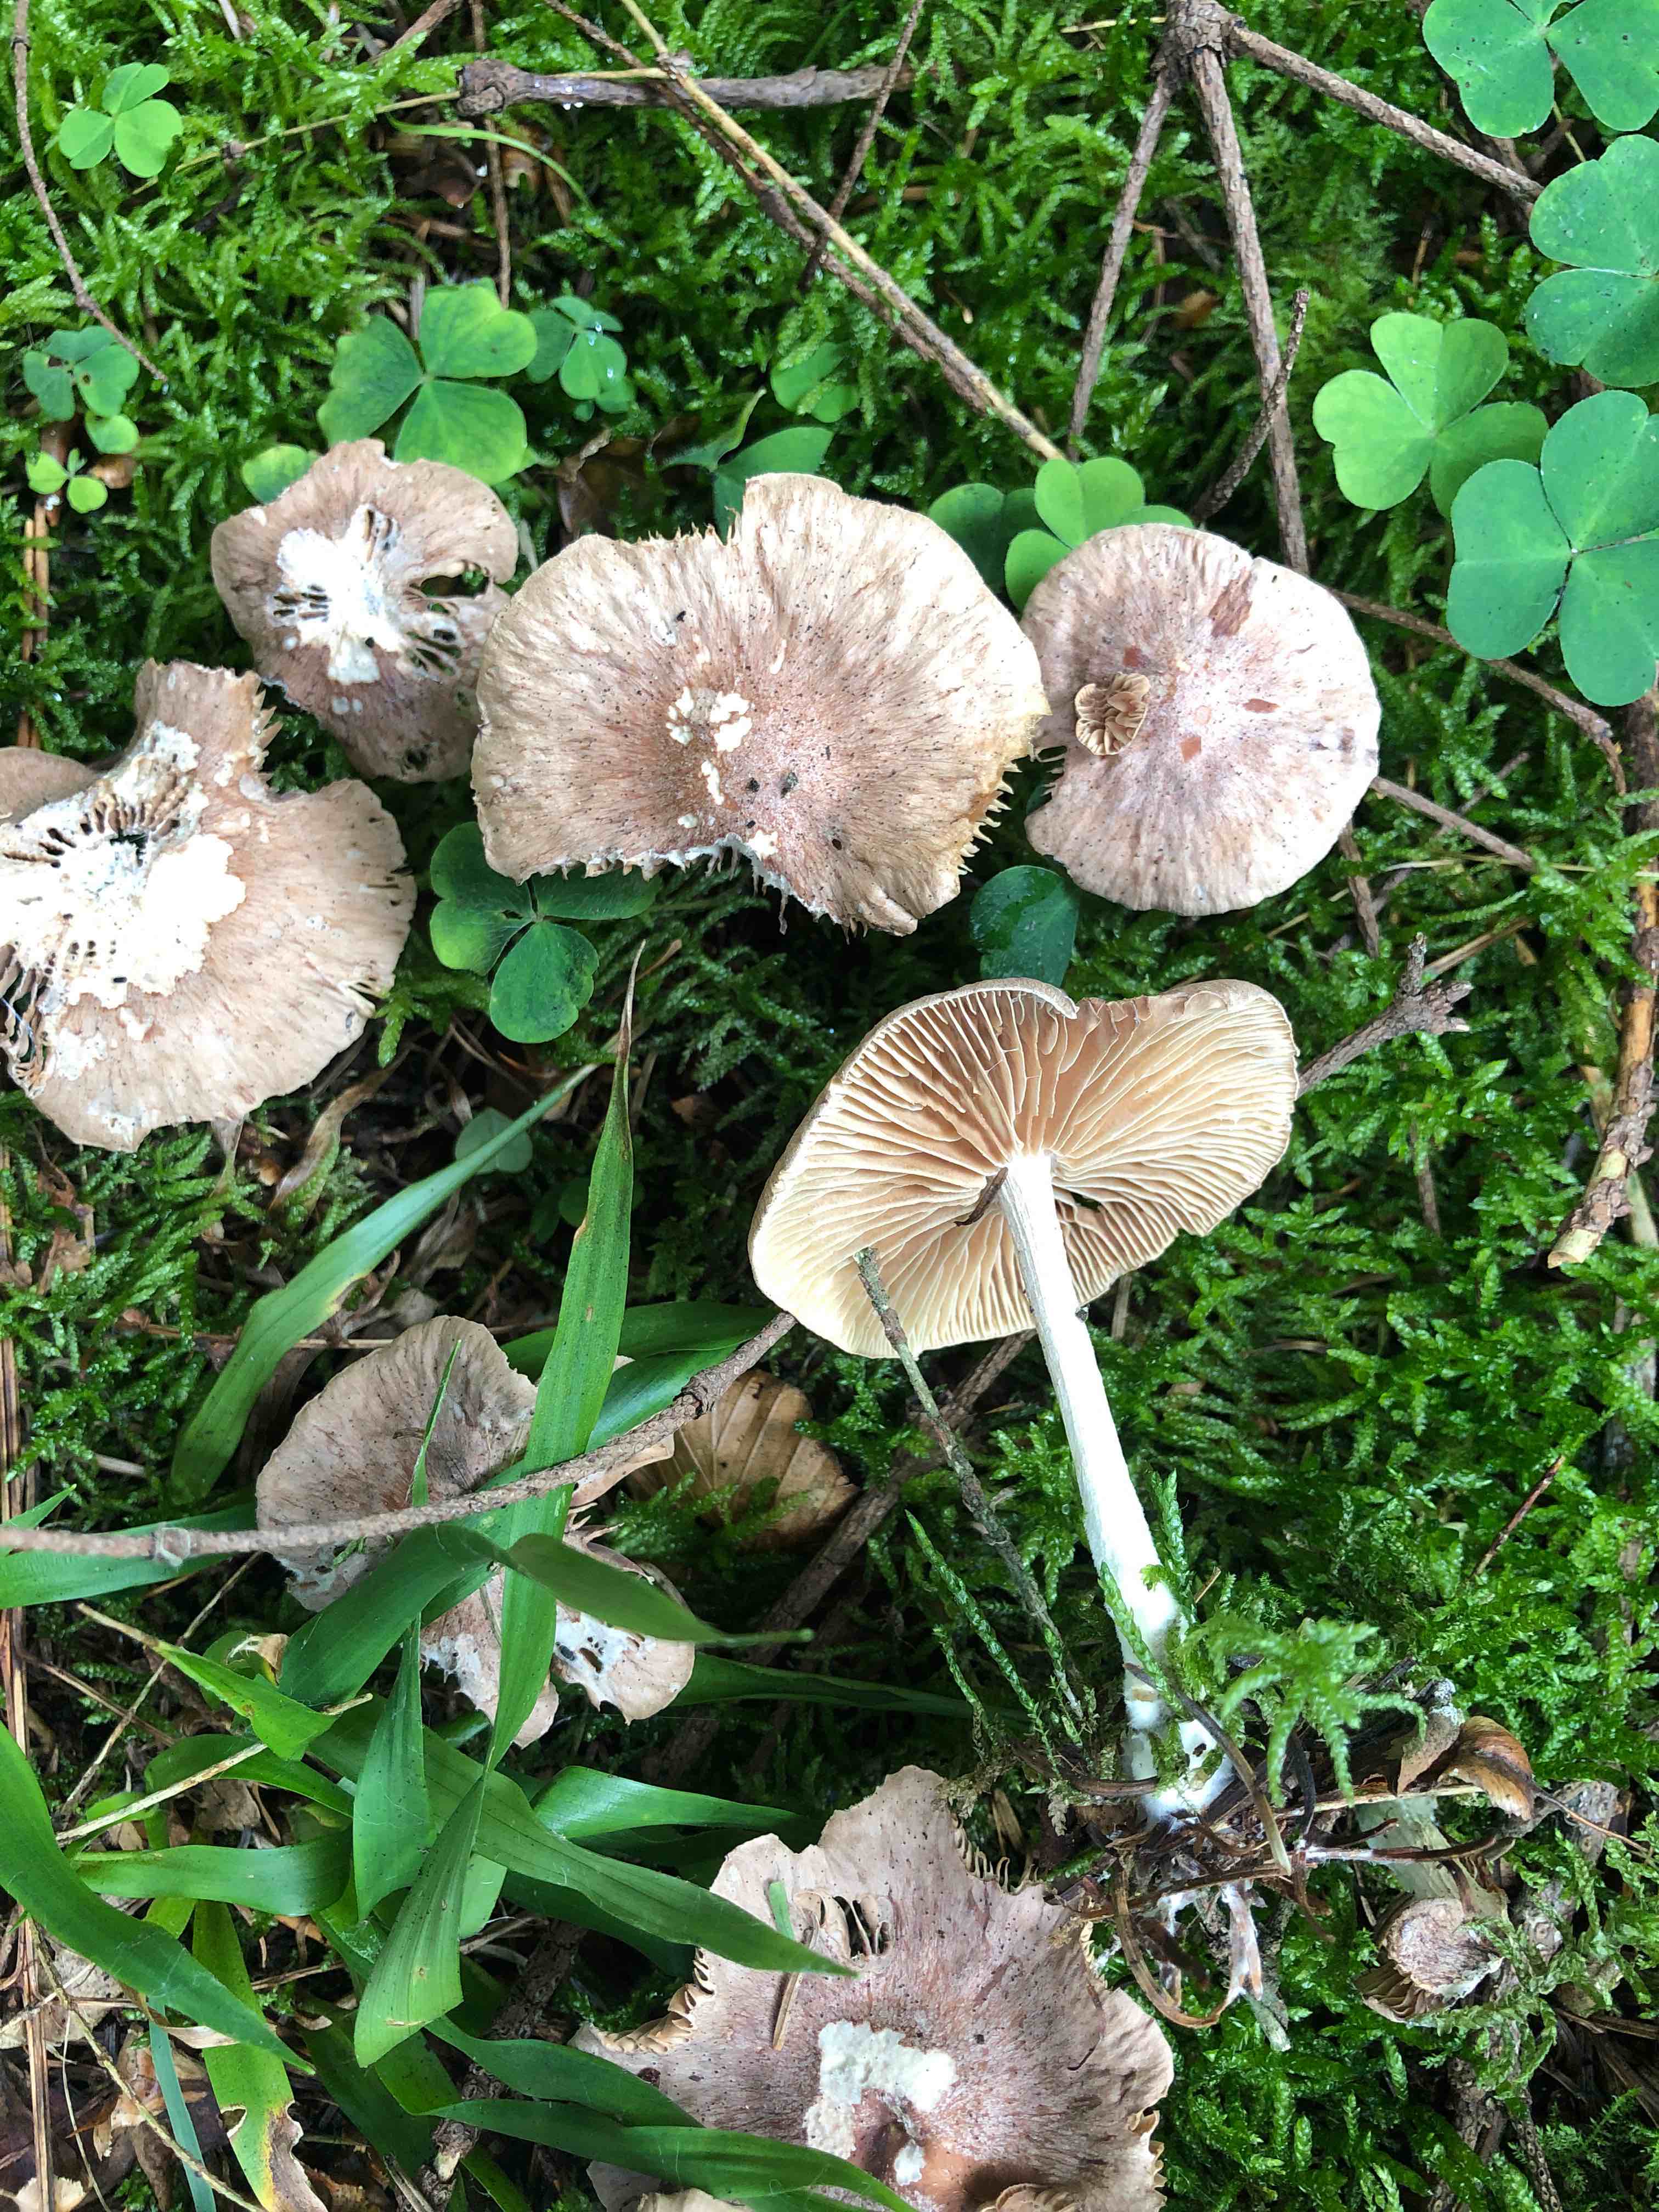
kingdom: Fungi
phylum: Basidiomycota
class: Agaricomycetes
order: Agaricales
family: Omphalotaceae
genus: Collybiopsis
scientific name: Collybiopsis peronata
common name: bestøvlet fladhat
